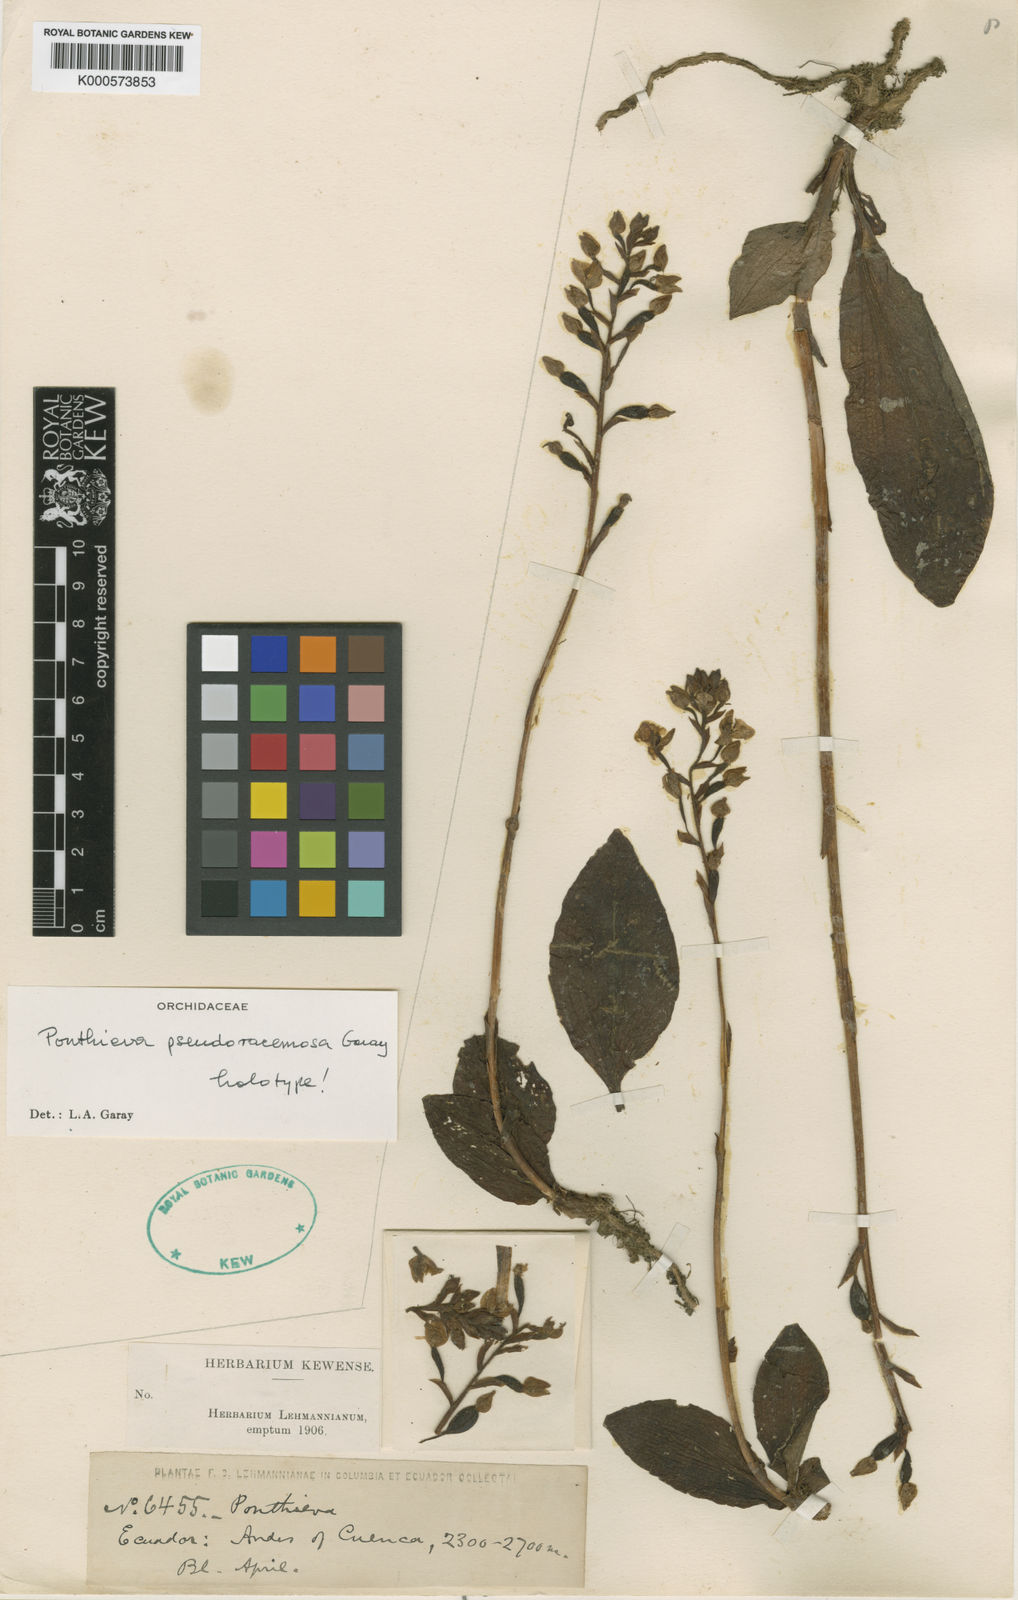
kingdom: Plantae
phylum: Tracheophyta
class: Liliopsida
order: Asparagales
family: Orchidaceae
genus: Ponthieva
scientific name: Ponthieva pseudoracemosa
